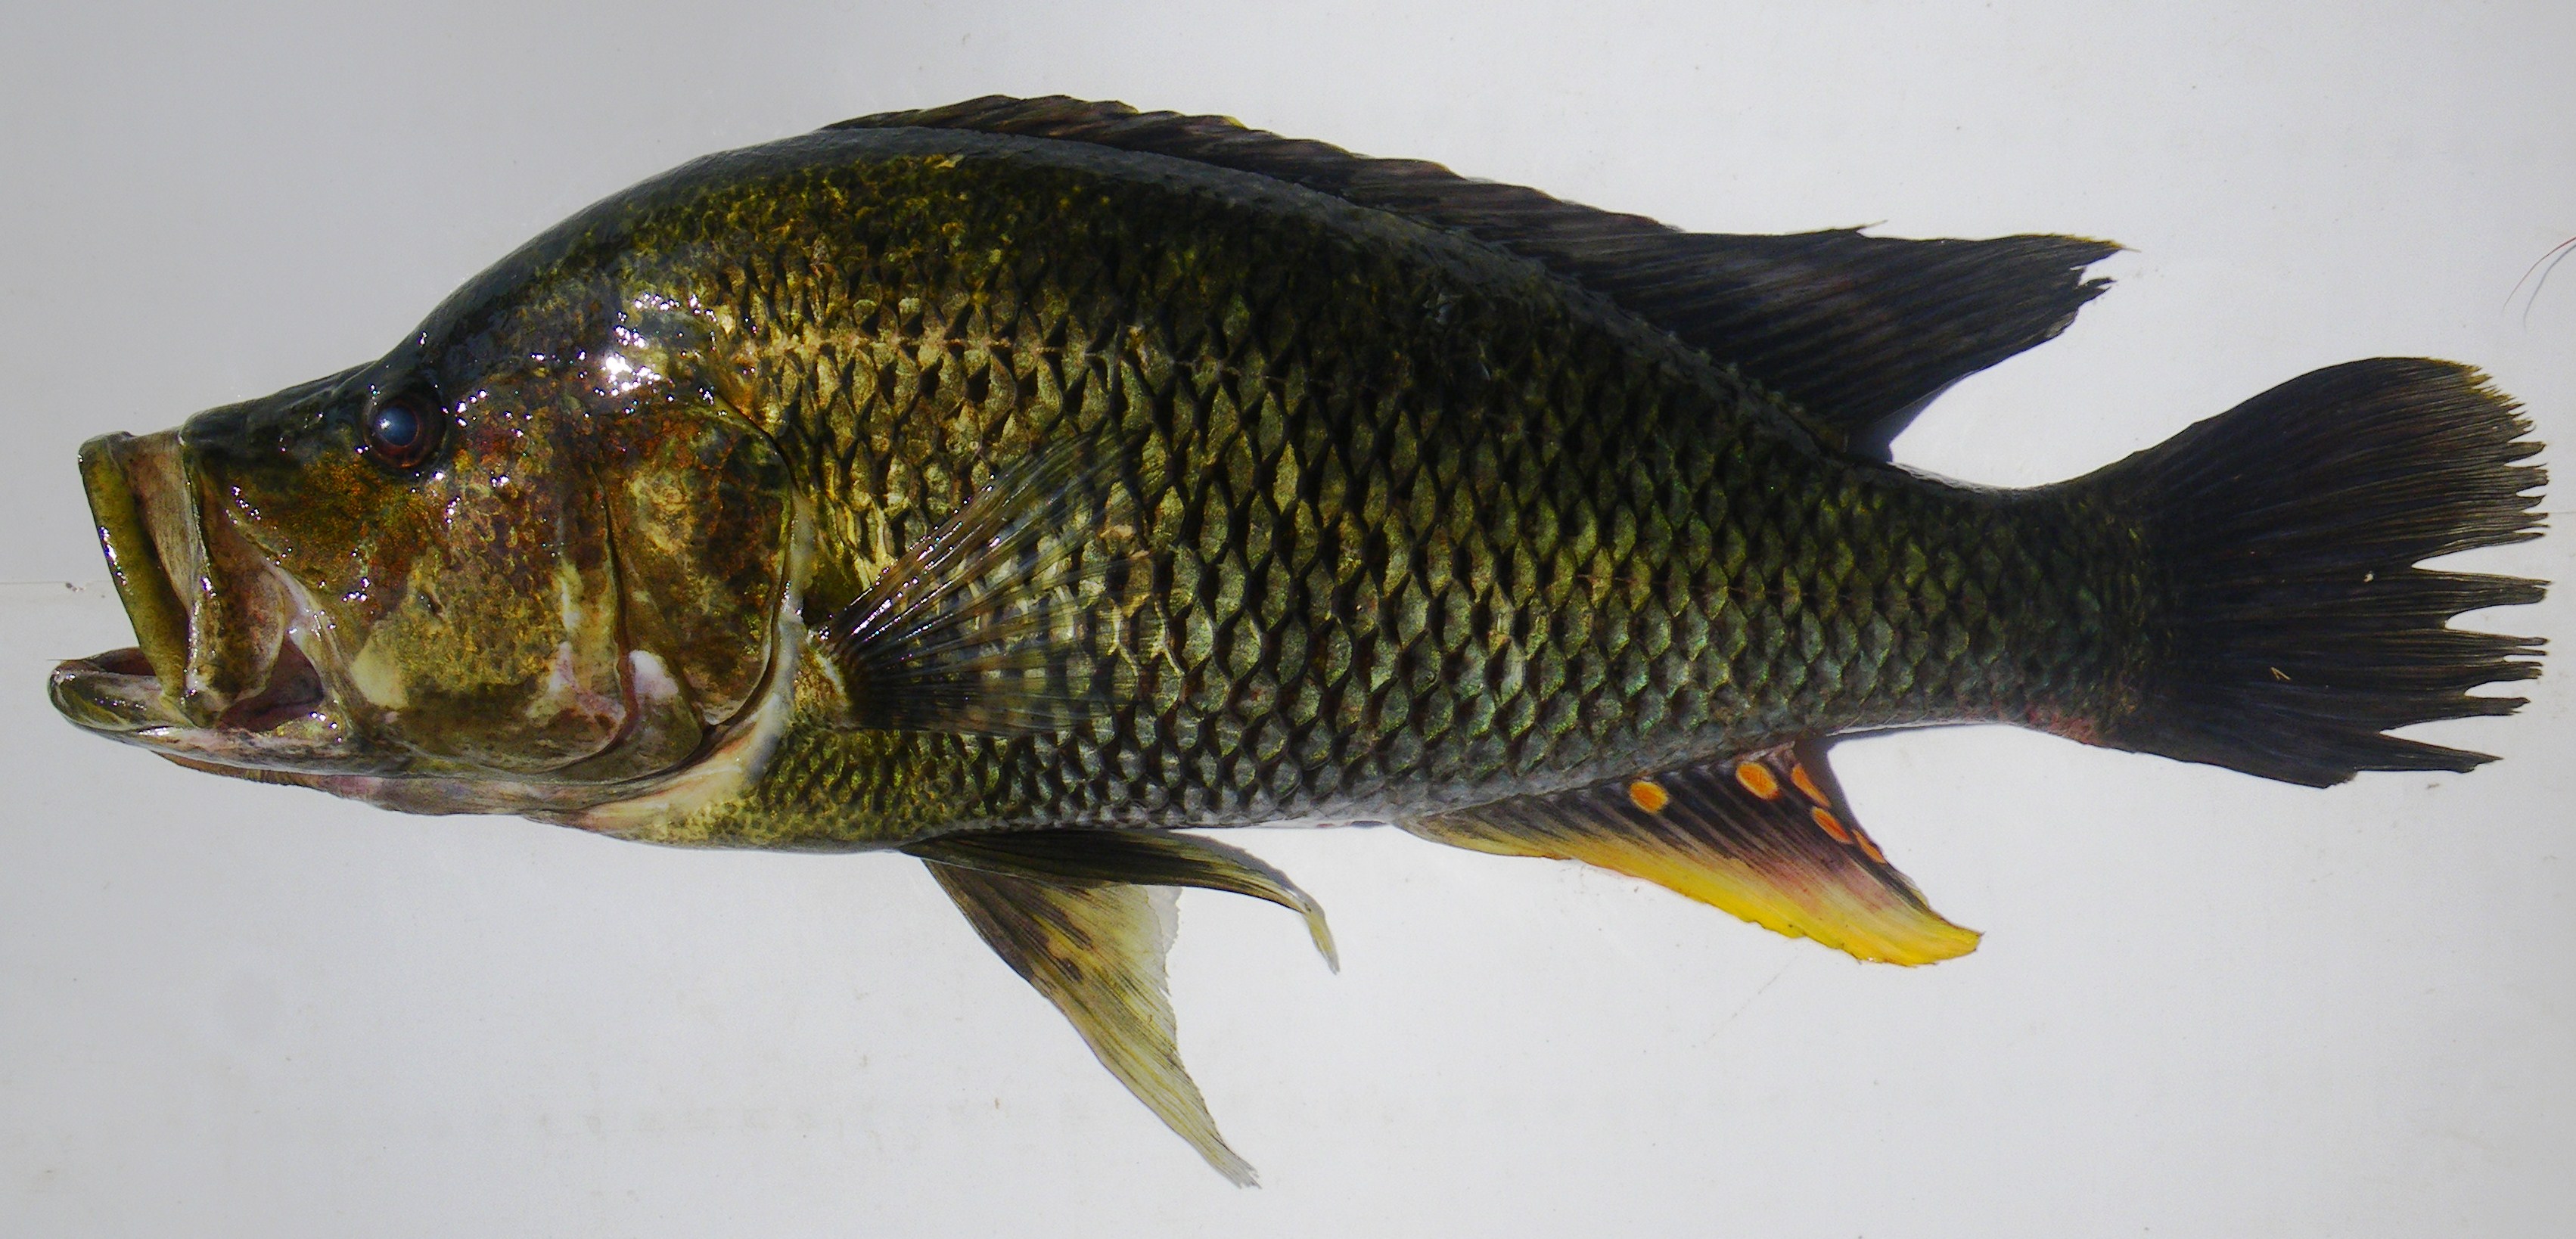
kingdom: Animalia
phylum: Chordata
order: Perciformes
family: Cichlidae
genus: Serranochromis
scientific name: Serranochromis angusticeps
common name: Thinface largemouth
